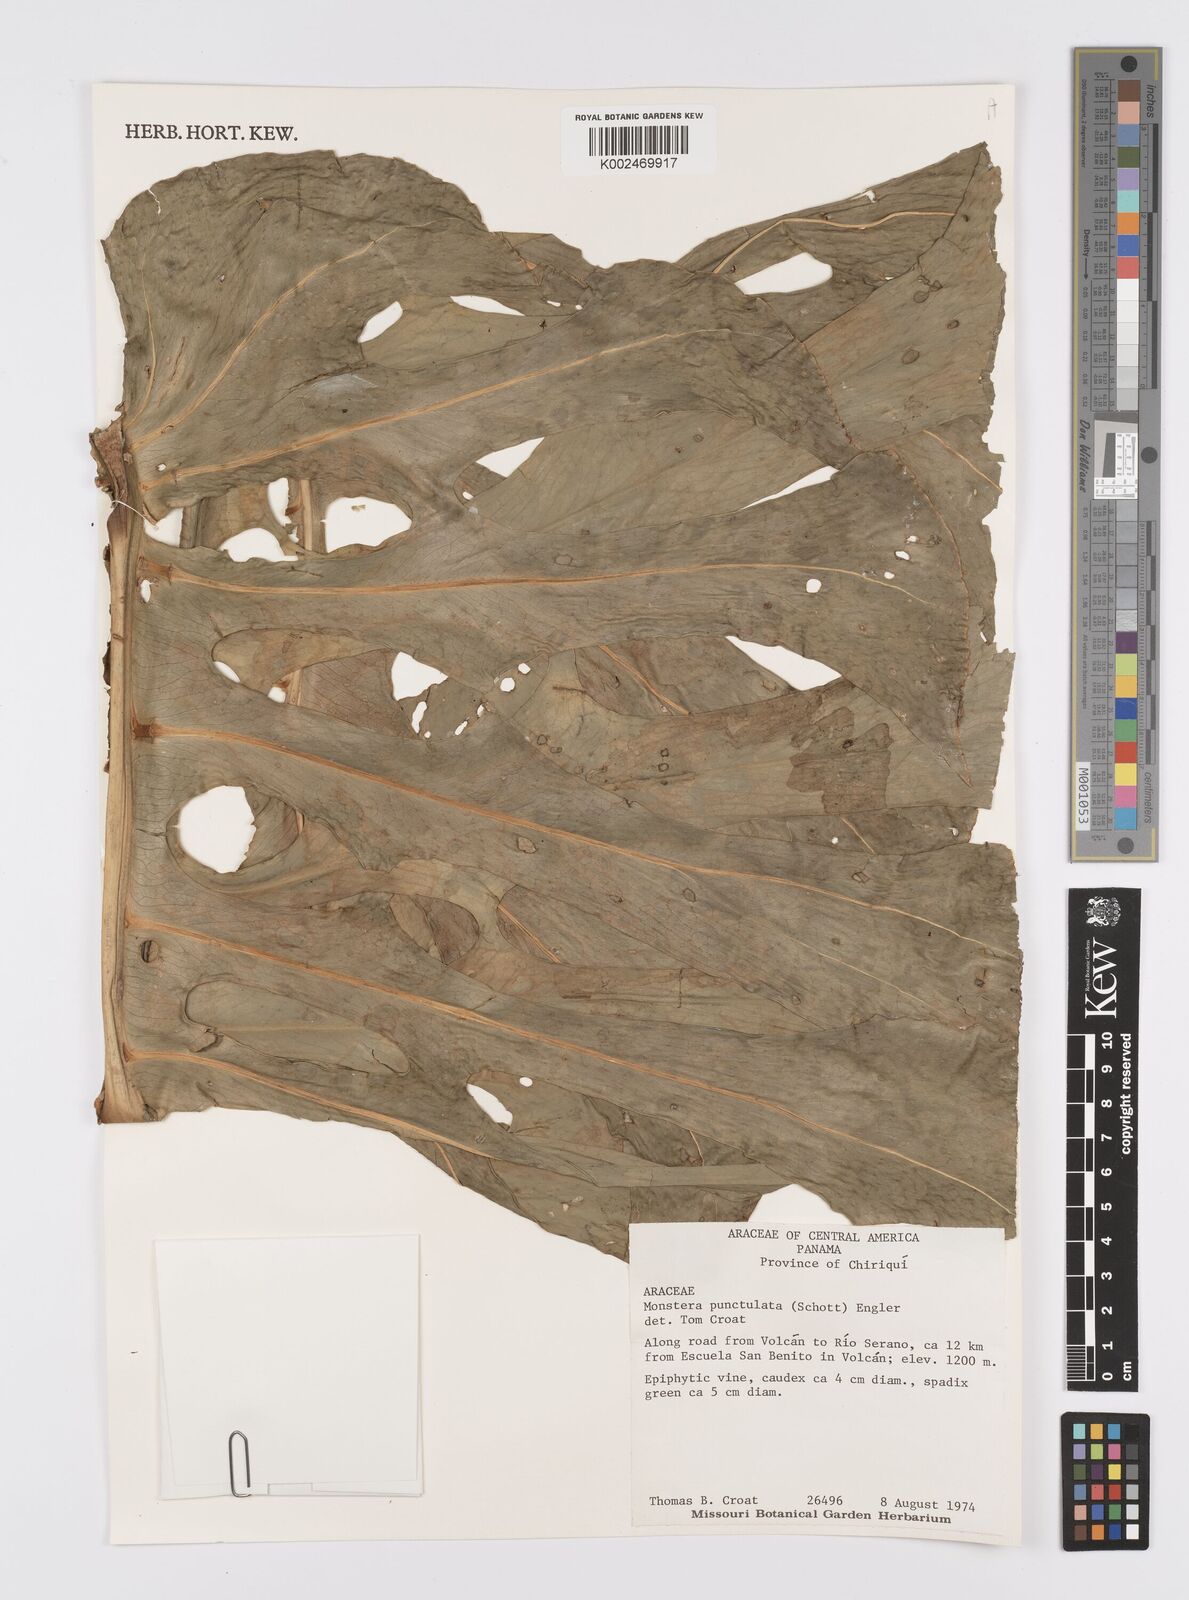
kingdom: Plantae
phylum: Tracheophyta
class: Liliopsida
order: Alismatales
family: Araceae
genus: Monstera
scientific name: Monstera punctulata
